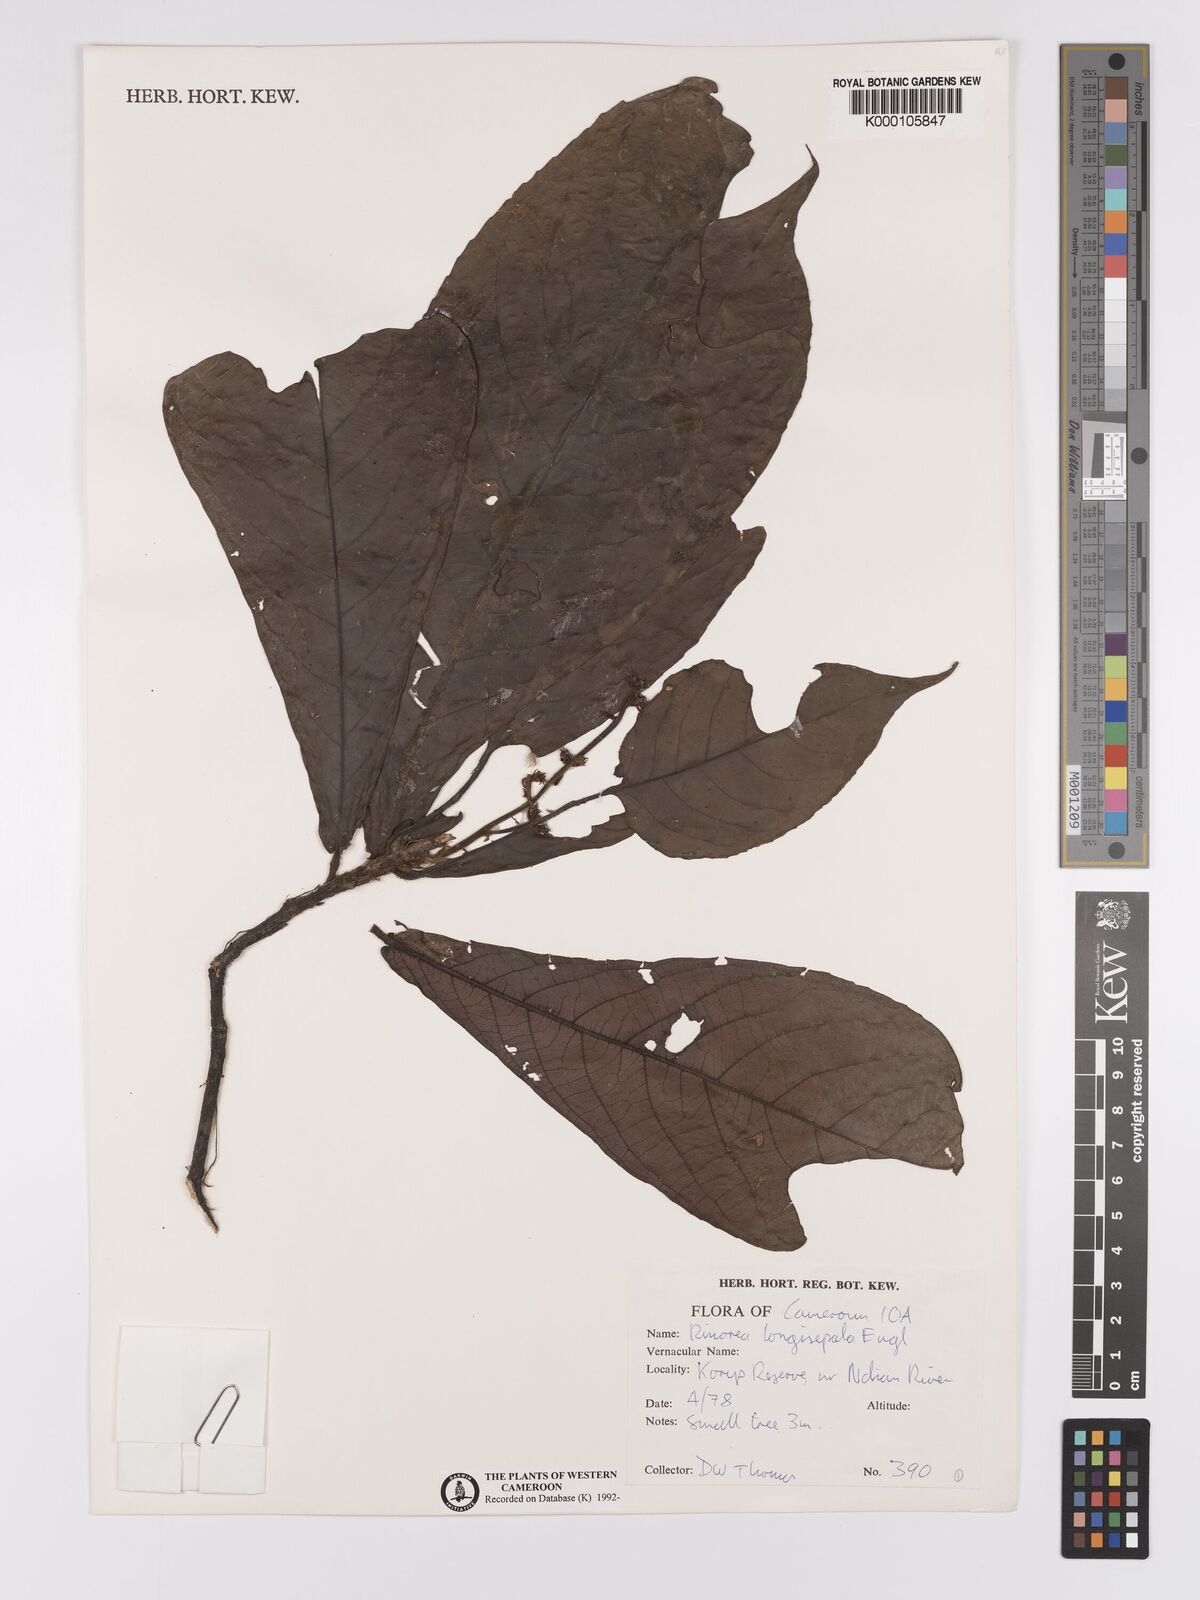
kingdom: Plantae
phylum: Tracheophyta
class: Magnoliopsida
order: Malpighiales
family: Violaceae
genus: Rinorea
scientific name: Rinorea longisepala
